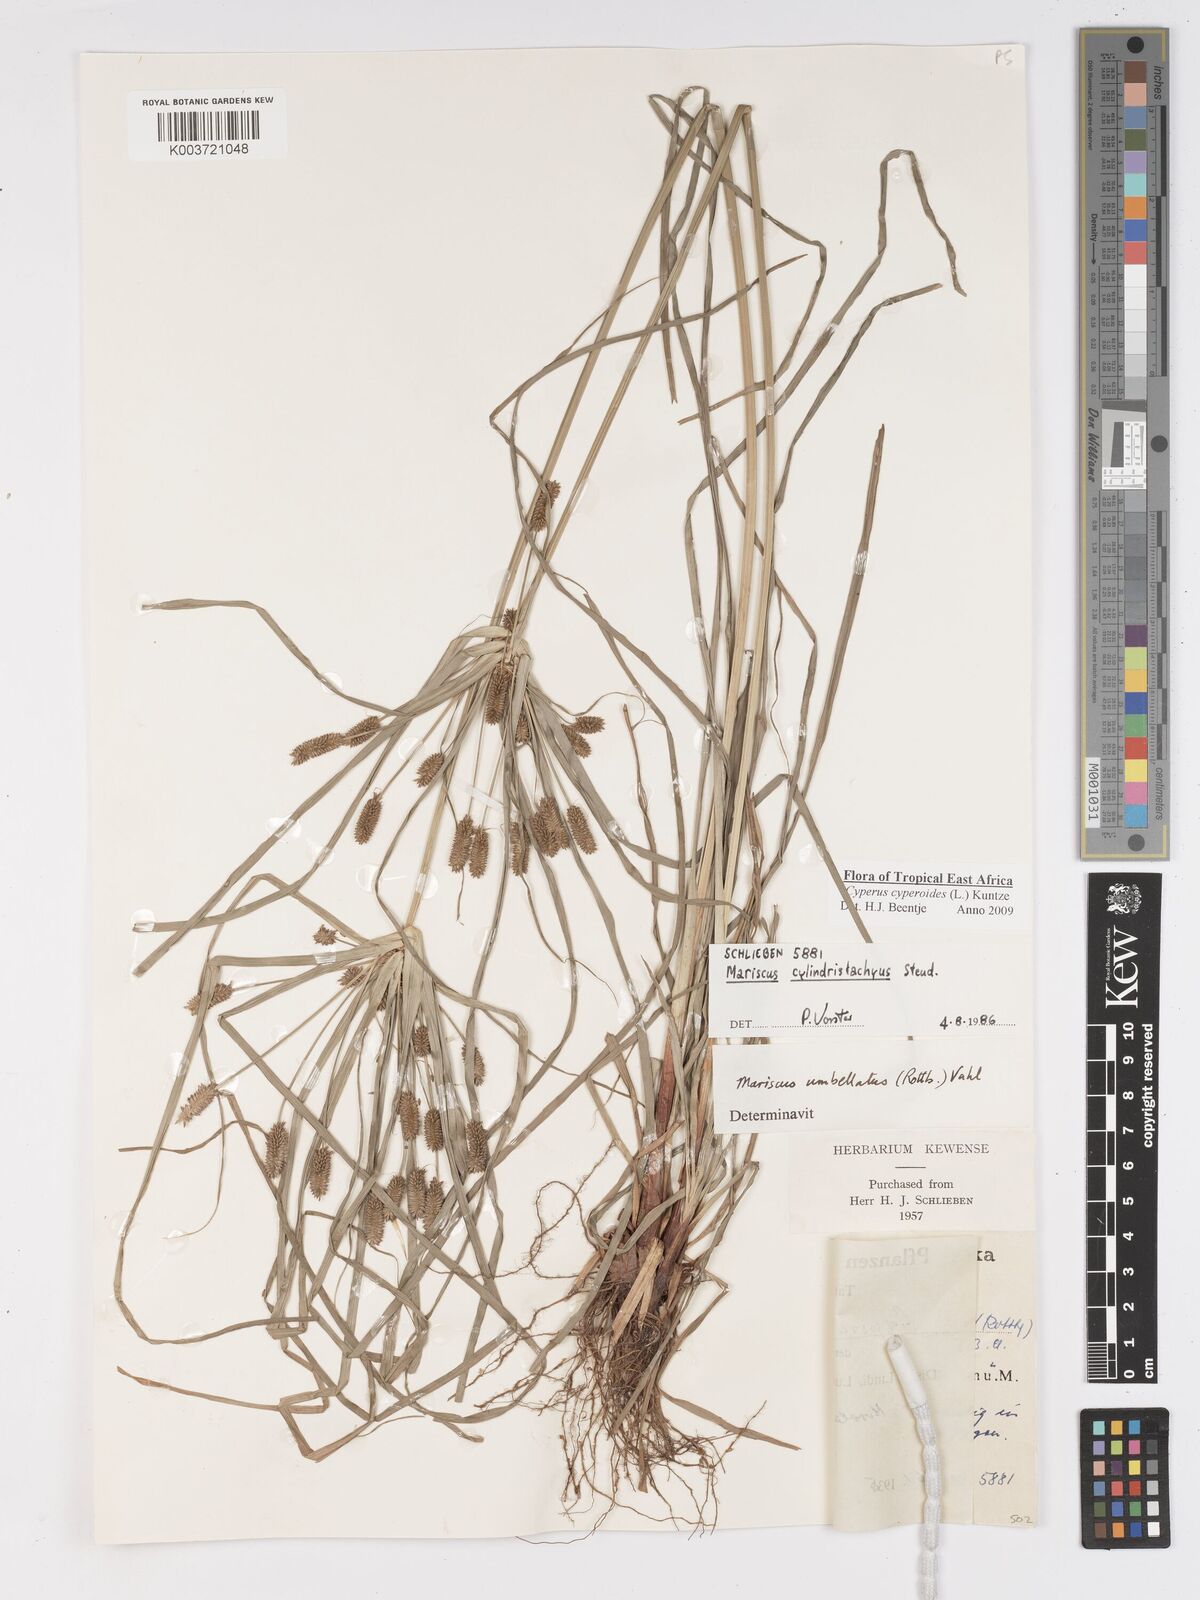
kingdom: Plantae
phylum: Tracheophyta
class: Liliopsida
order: Poales
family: Cyperaceae
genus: Cyperus
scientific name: Cyperus cyperoides
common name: Pacific island flat sedge
